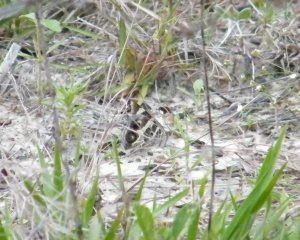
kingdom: Animalia
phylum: Arthropoda
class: Insecta
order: Lepidoptera
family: Nymphalidae
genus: Vanessa
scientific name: Vanessa virginiensis
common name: American Lady
